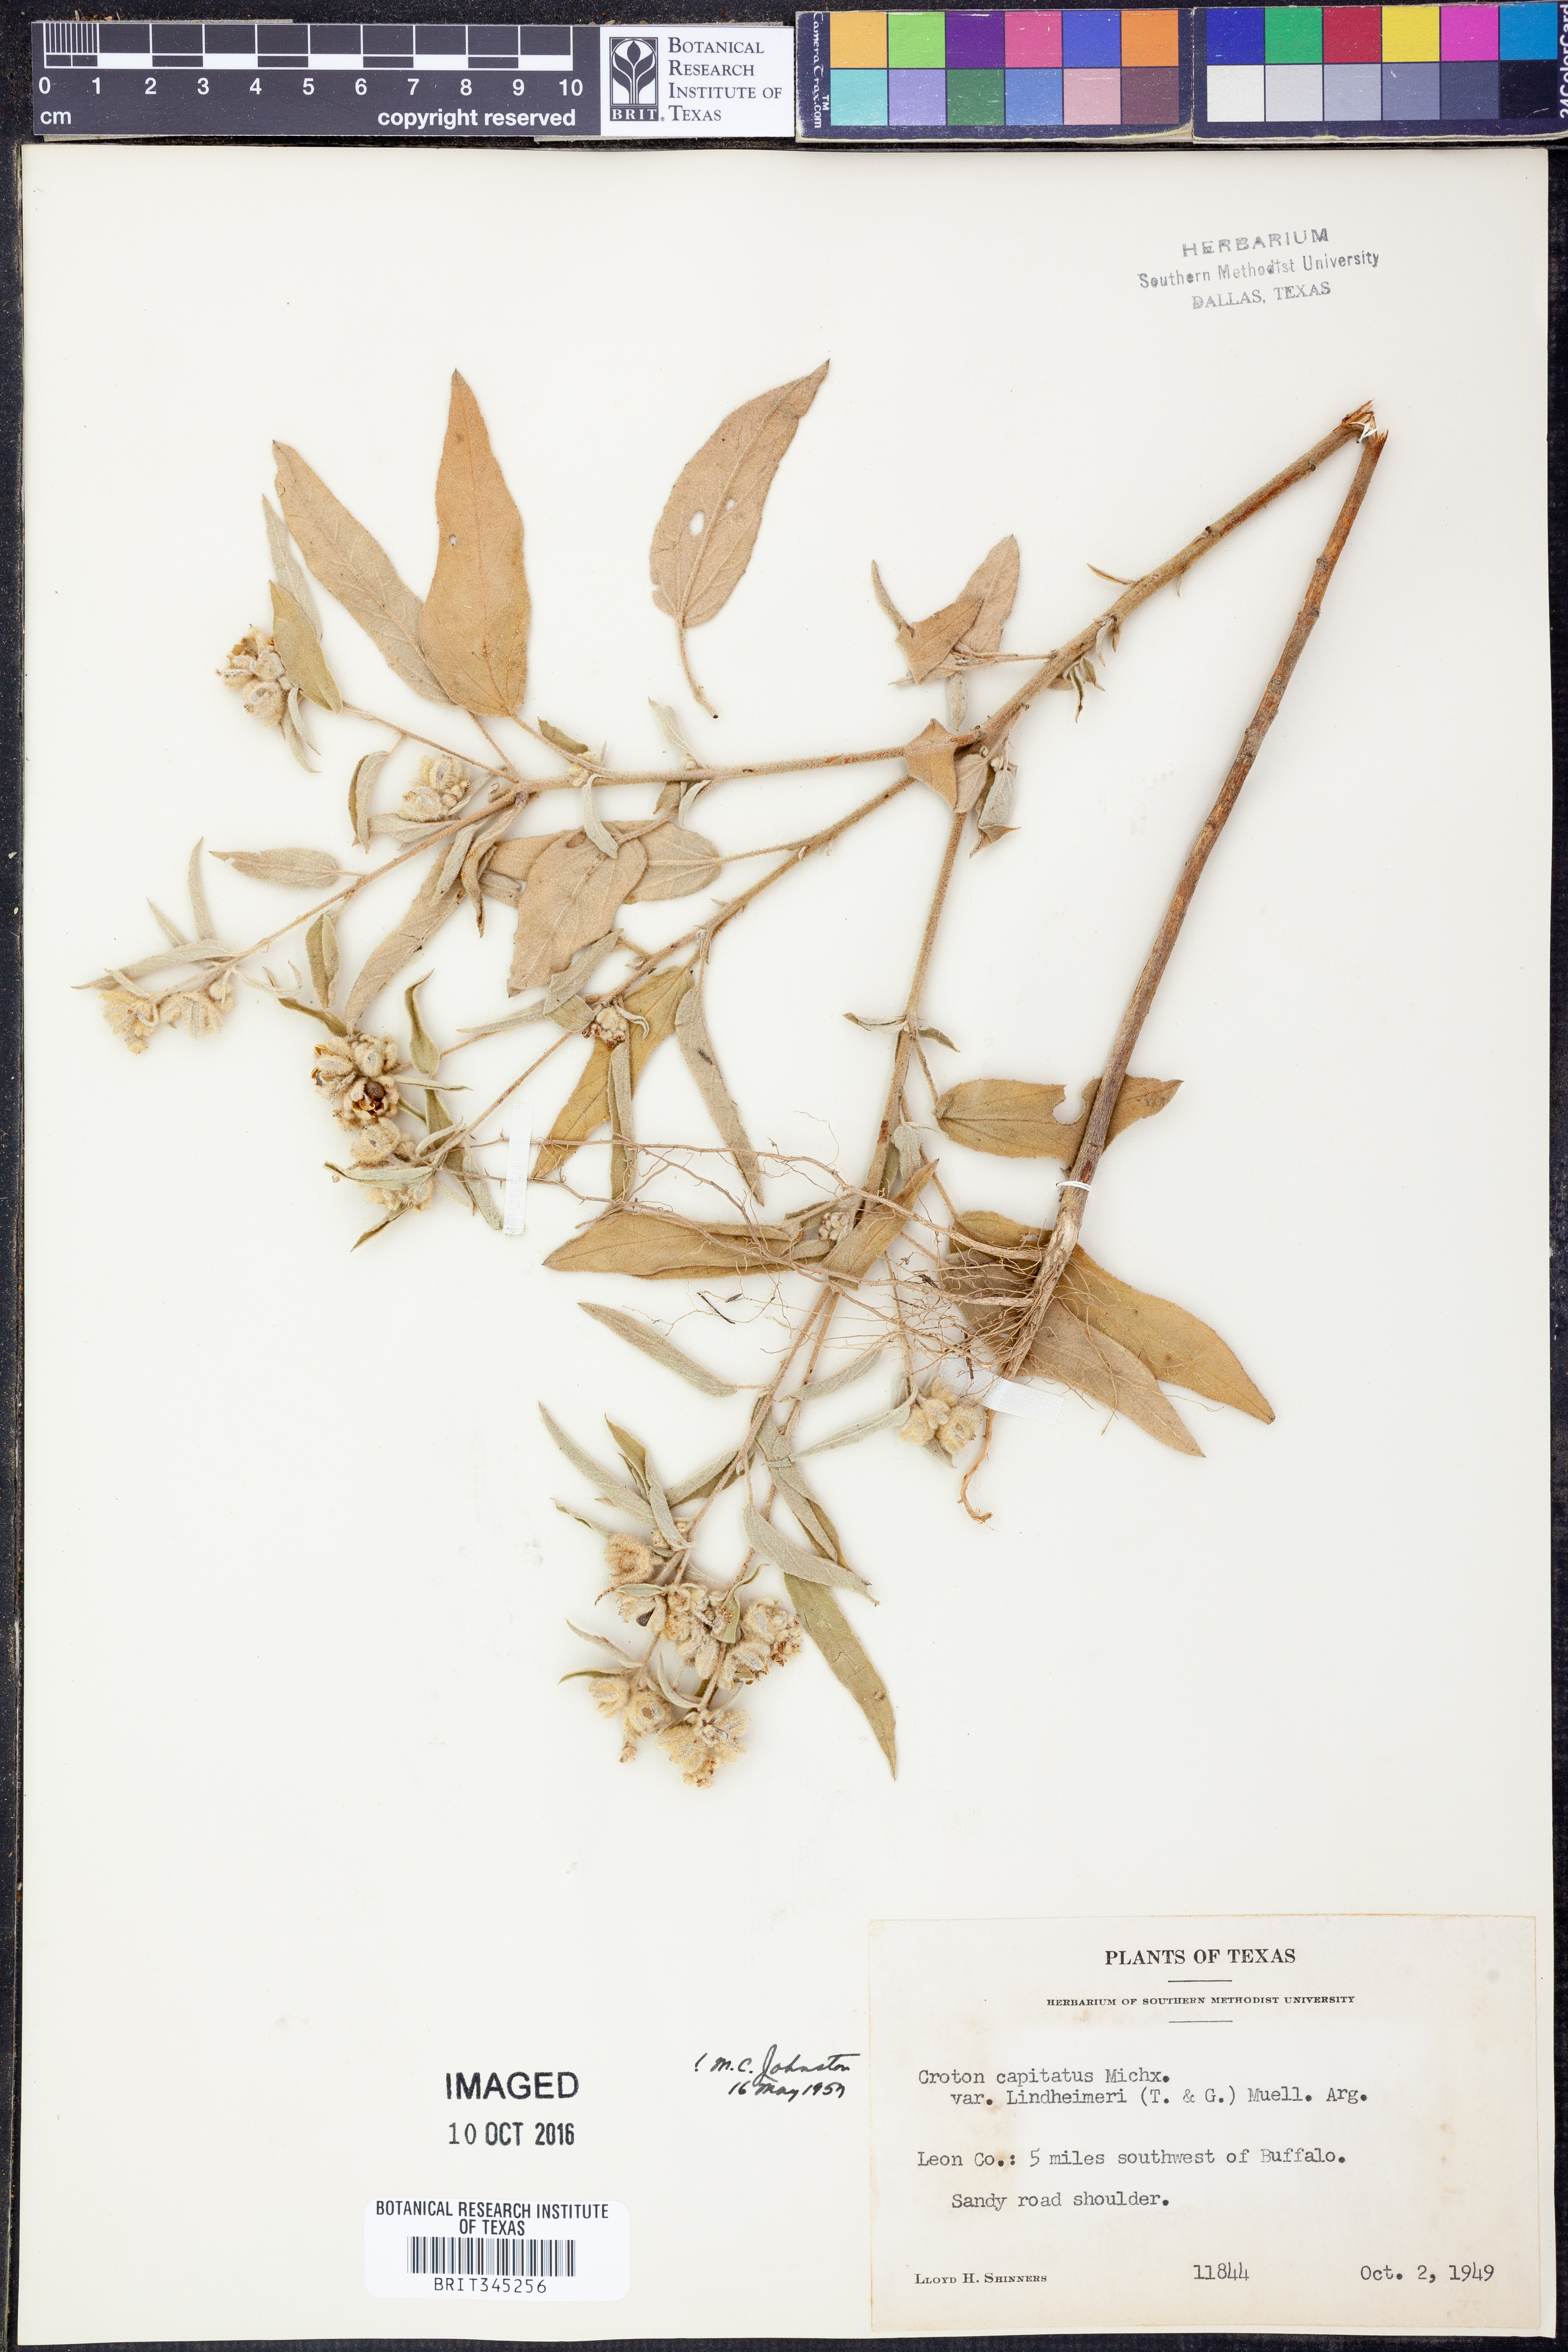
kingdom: Plantae
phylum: Tracheophyta
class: Magnoliopsida
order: Malpighiales
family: Euphorbiaceae
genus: Croton
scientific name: Croton lindheimeri
